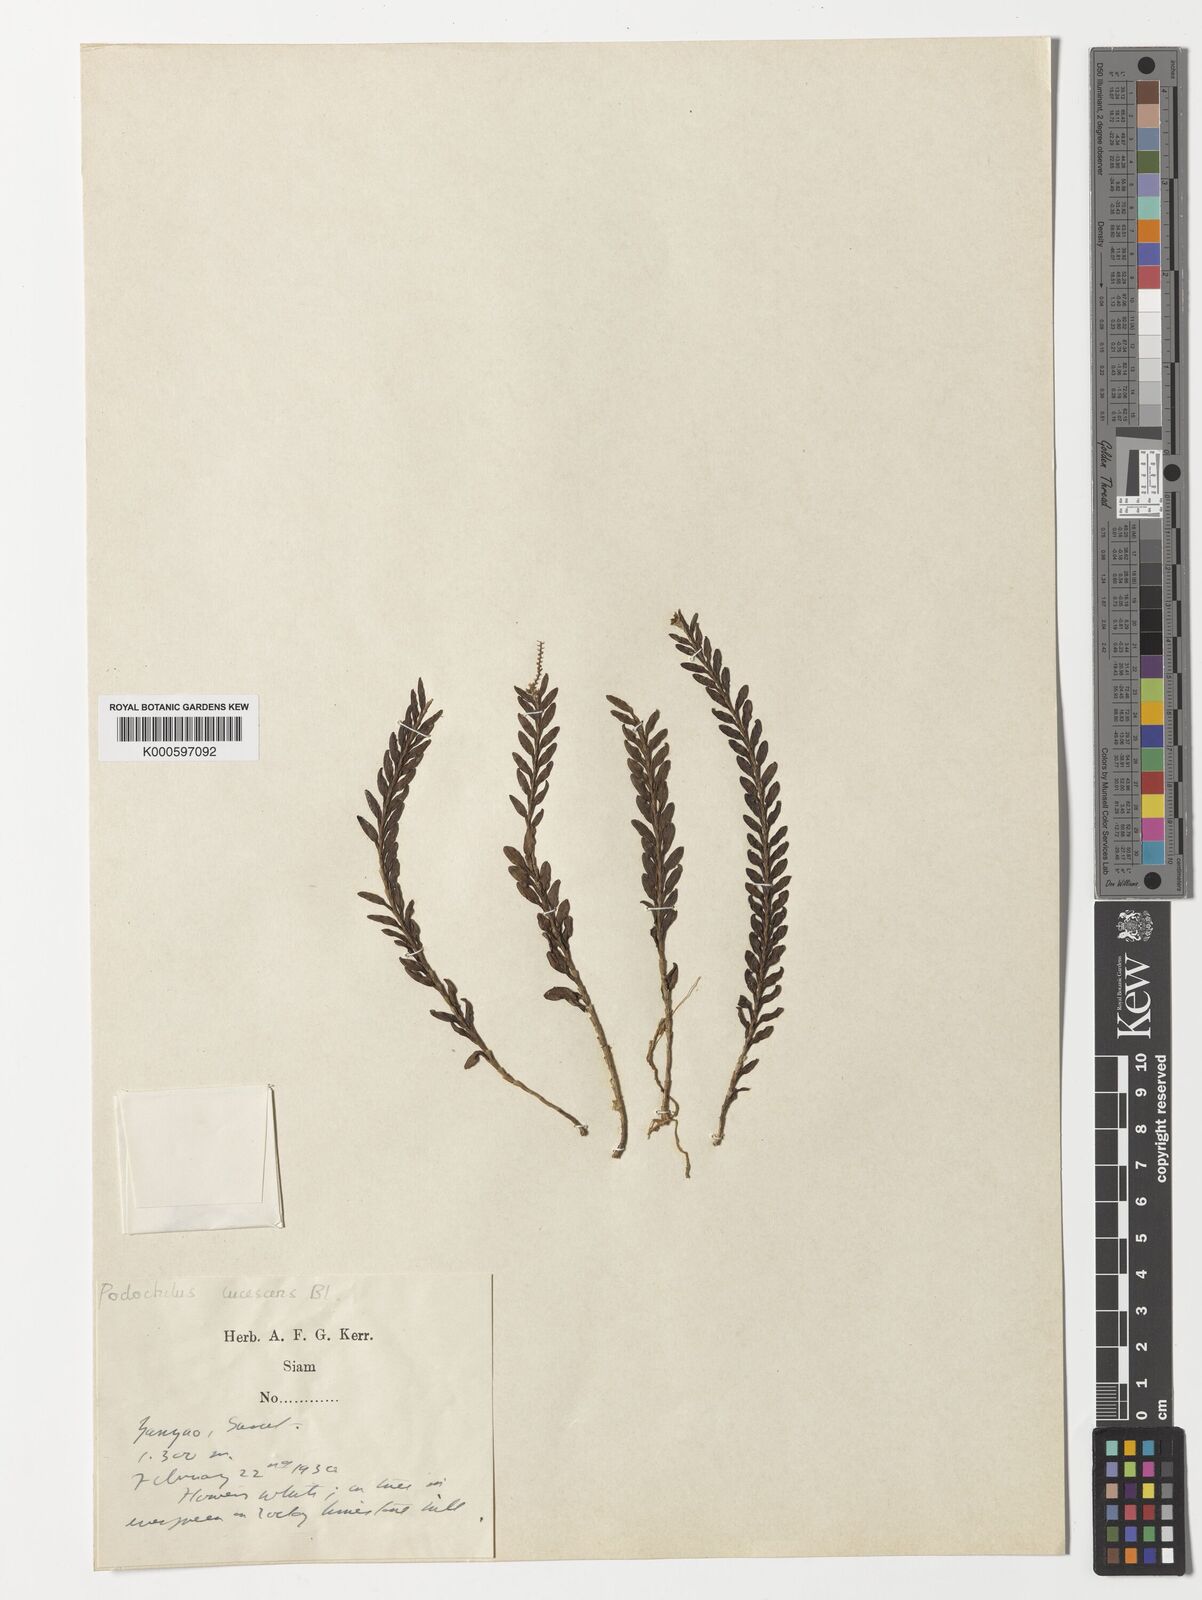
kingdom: Plantae
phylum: Tracheophyta
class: Liliopsida
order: Asparagales
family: Orchidaceae
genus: Podochilus
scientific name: Podochilus lucescens
